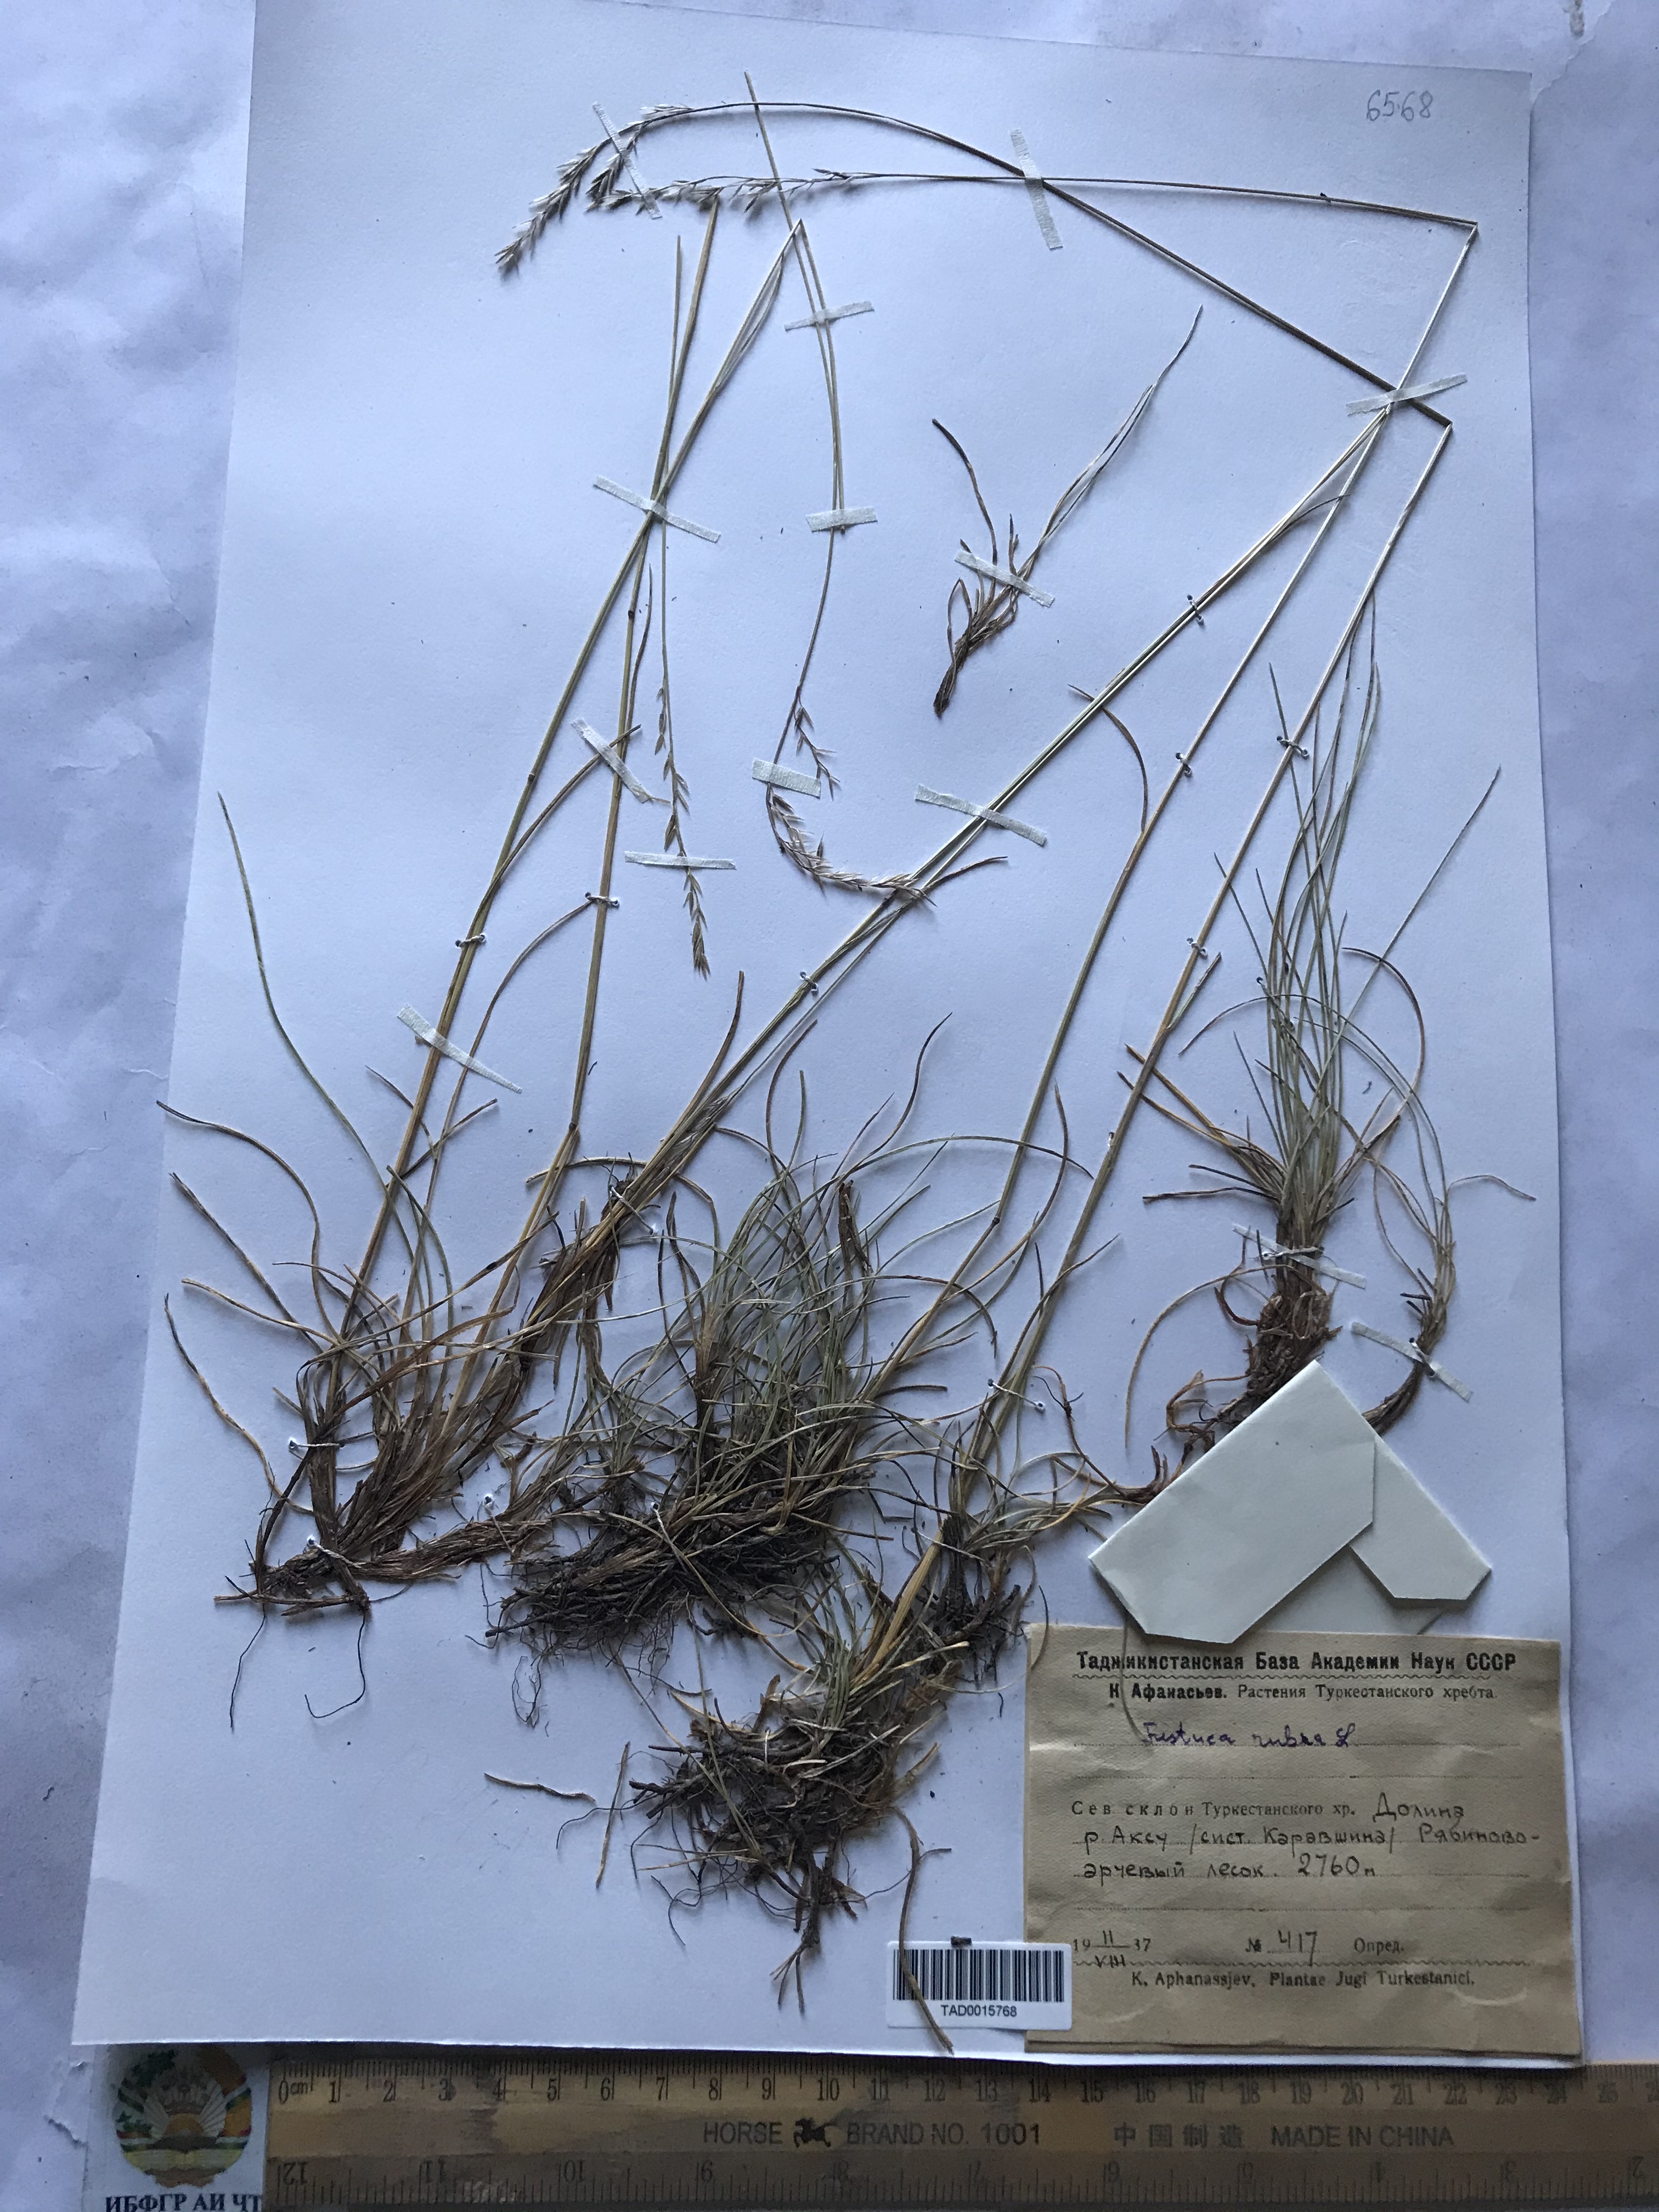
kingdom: Plantae
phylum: Tracheophyta
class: Liliopsida
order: Poales
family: Poaceae
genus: Festuca
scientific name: Festuca rubra
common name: Red fescue
